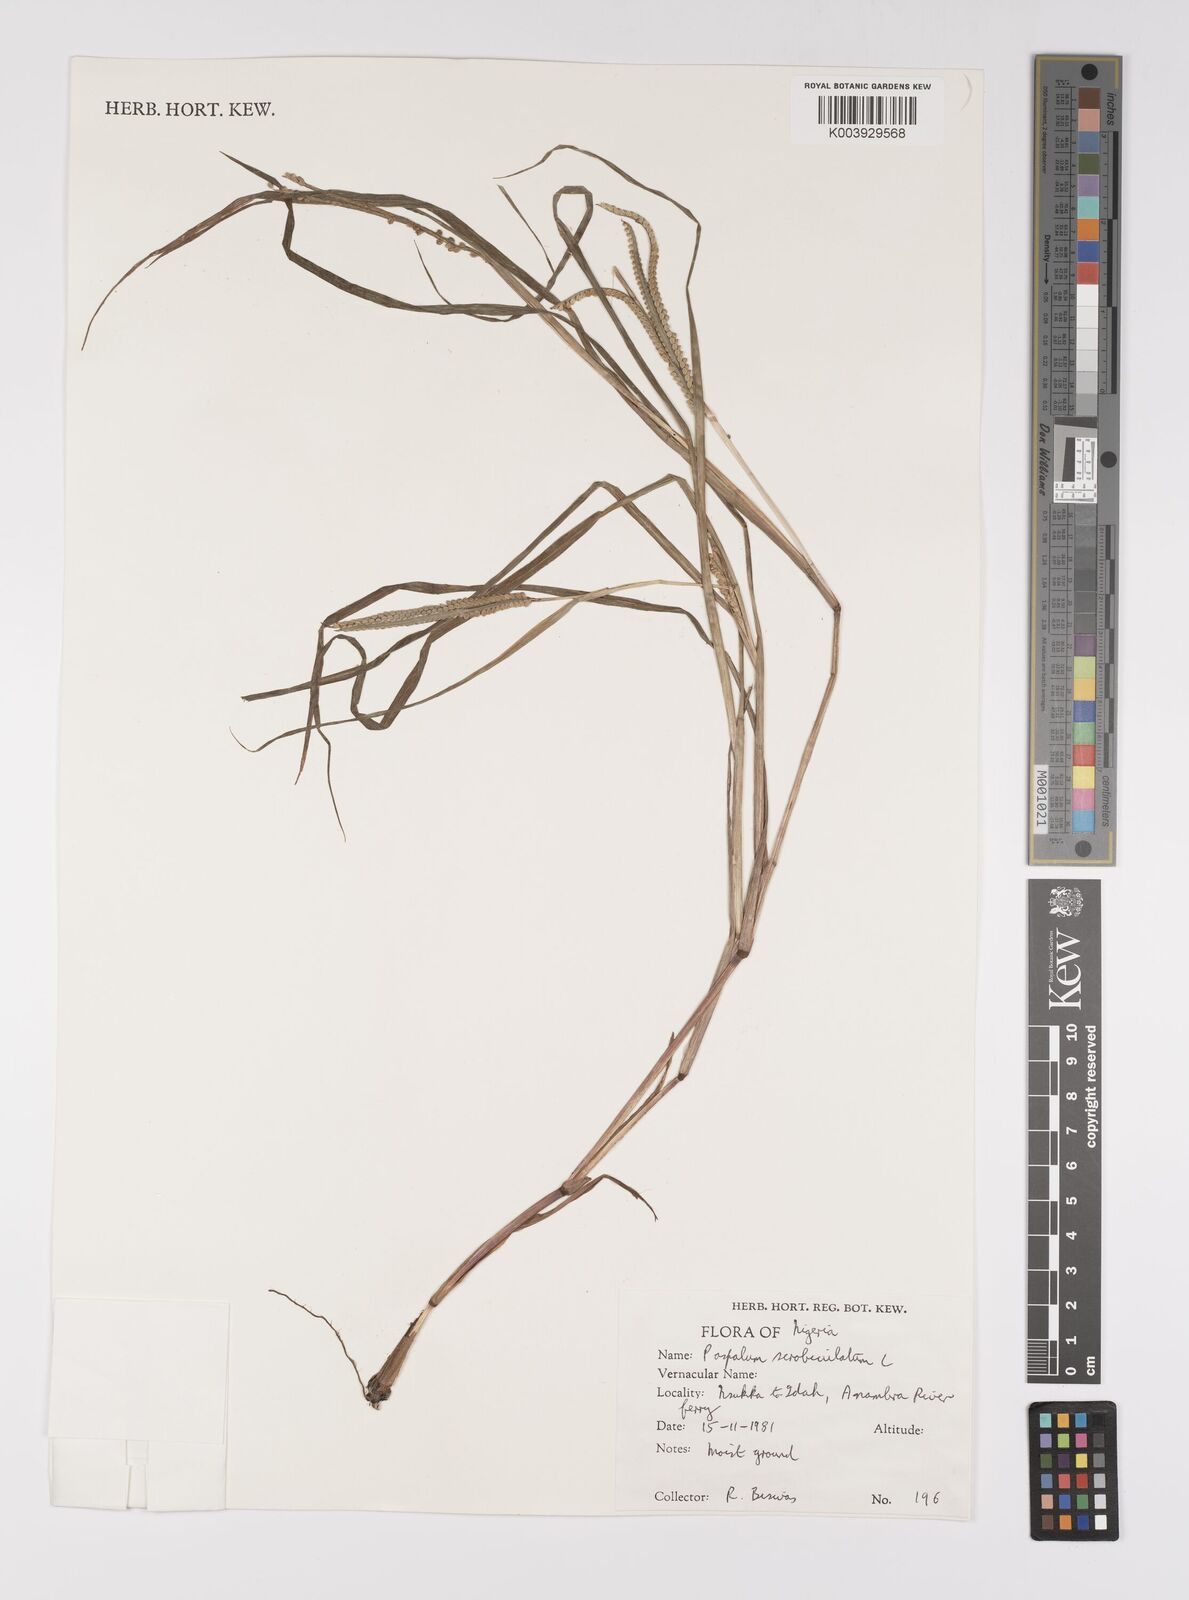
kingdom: Plantae
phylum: Tracheophyta
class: Liliopsida
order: Poales
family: Poaceae
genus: Paspalum
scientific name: Paspalum scrobiculatum
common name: Kodo millet
